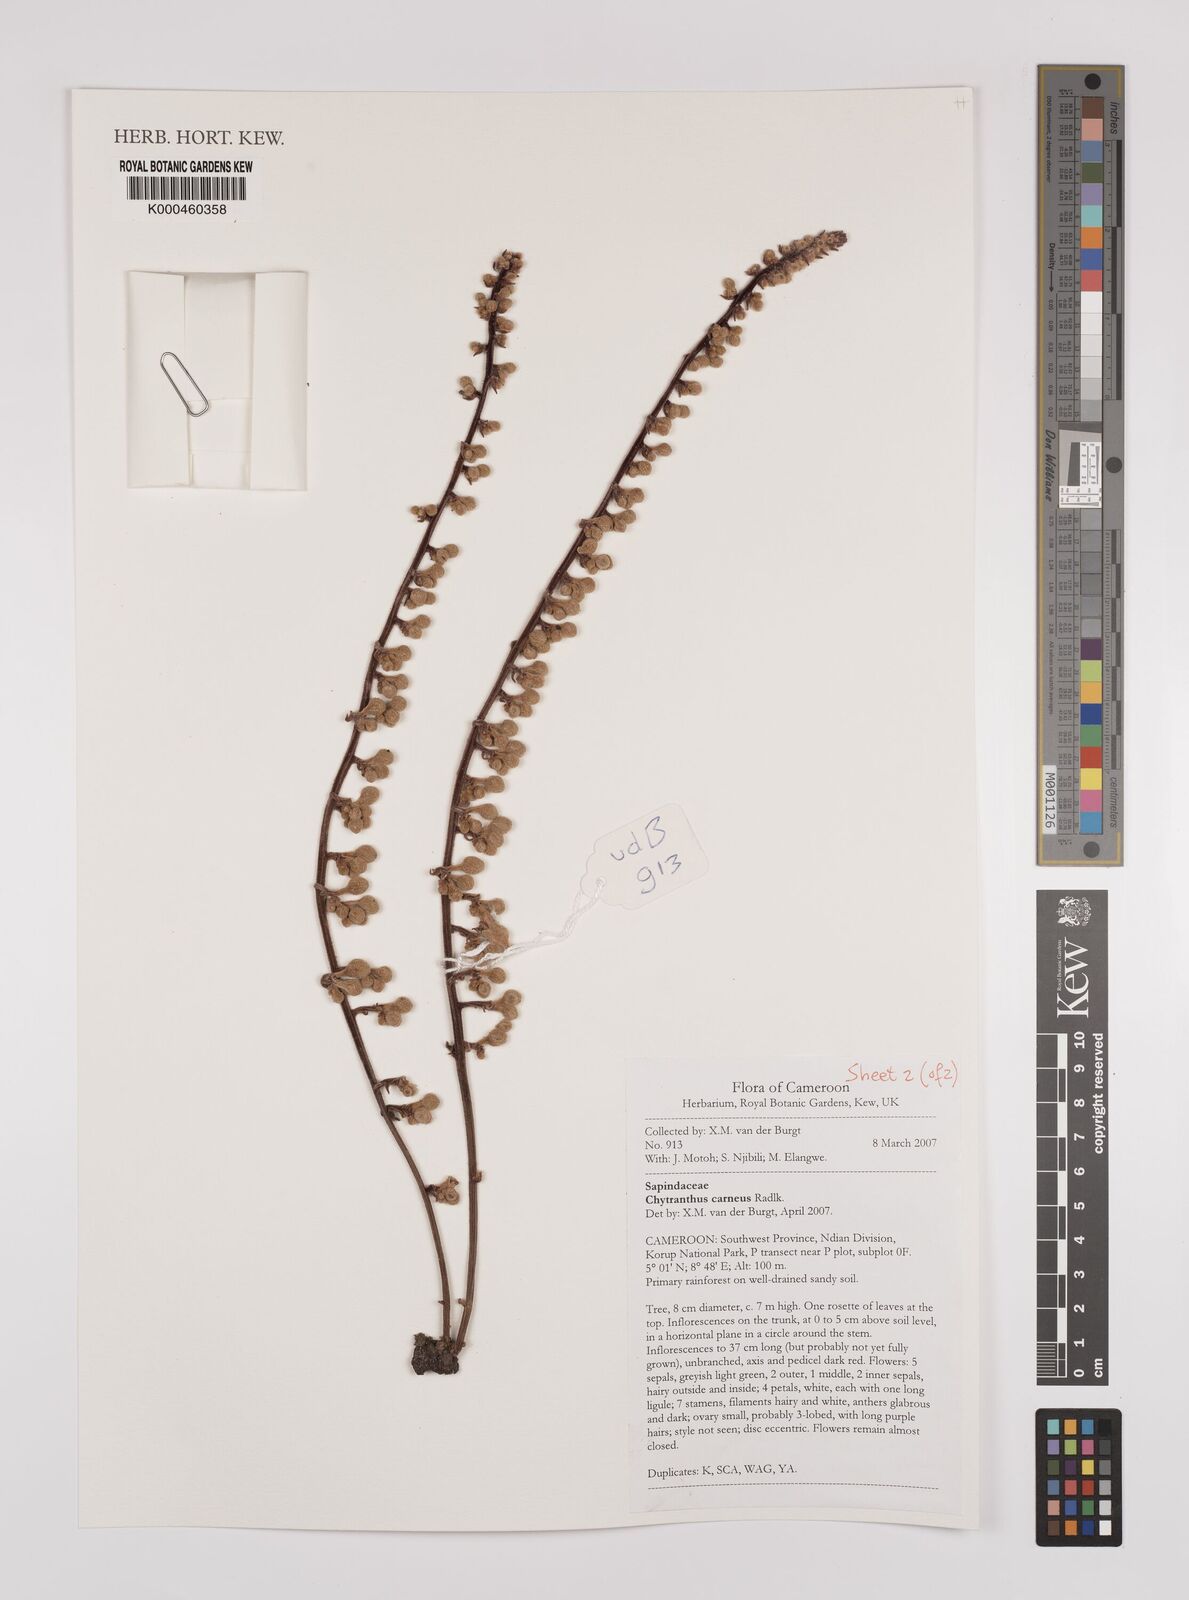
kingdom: Plantae
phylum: Tracheophyta
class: Magnoliopsida
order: Sapindales
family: Sapindaceae
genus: Chytranthus
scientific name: Chytranthus carneus
